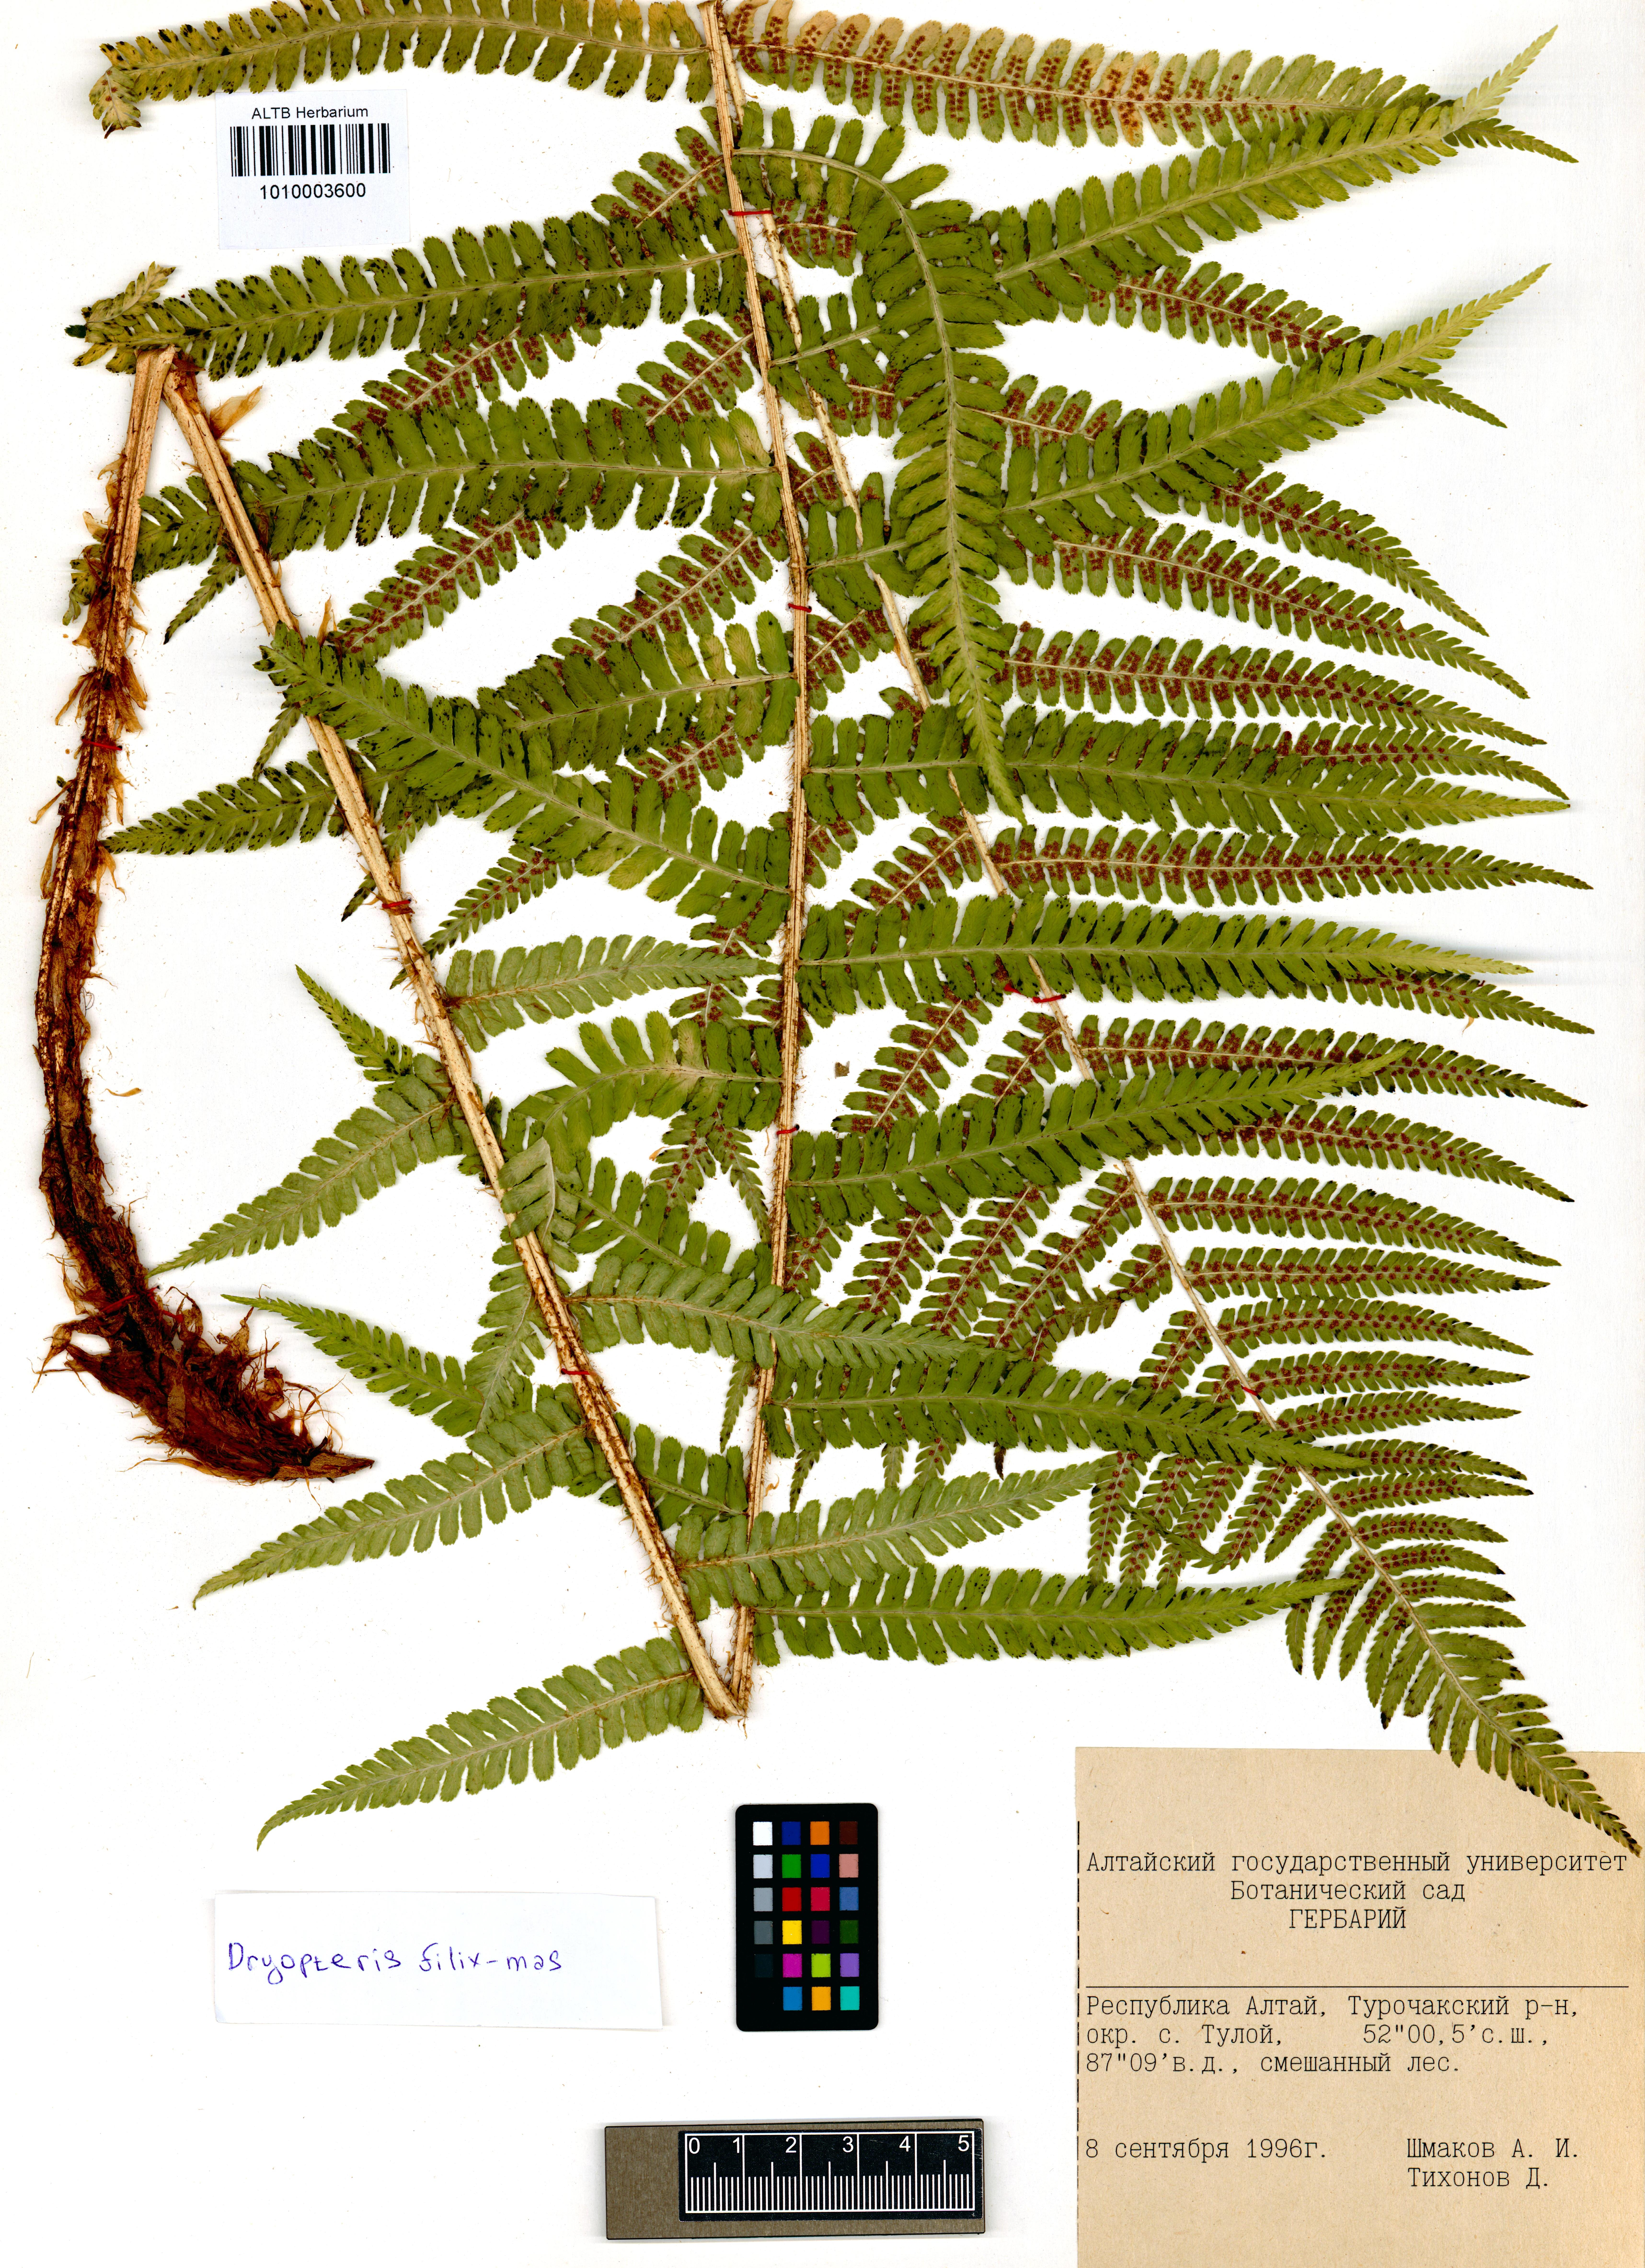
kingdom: Plantae
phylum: Tracheophyta
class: Polypodiopsida
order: Polypodiales
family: Dryopteridaceae
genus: Dryopteris
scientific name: Dryopteris filix-mas
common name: Male fern
